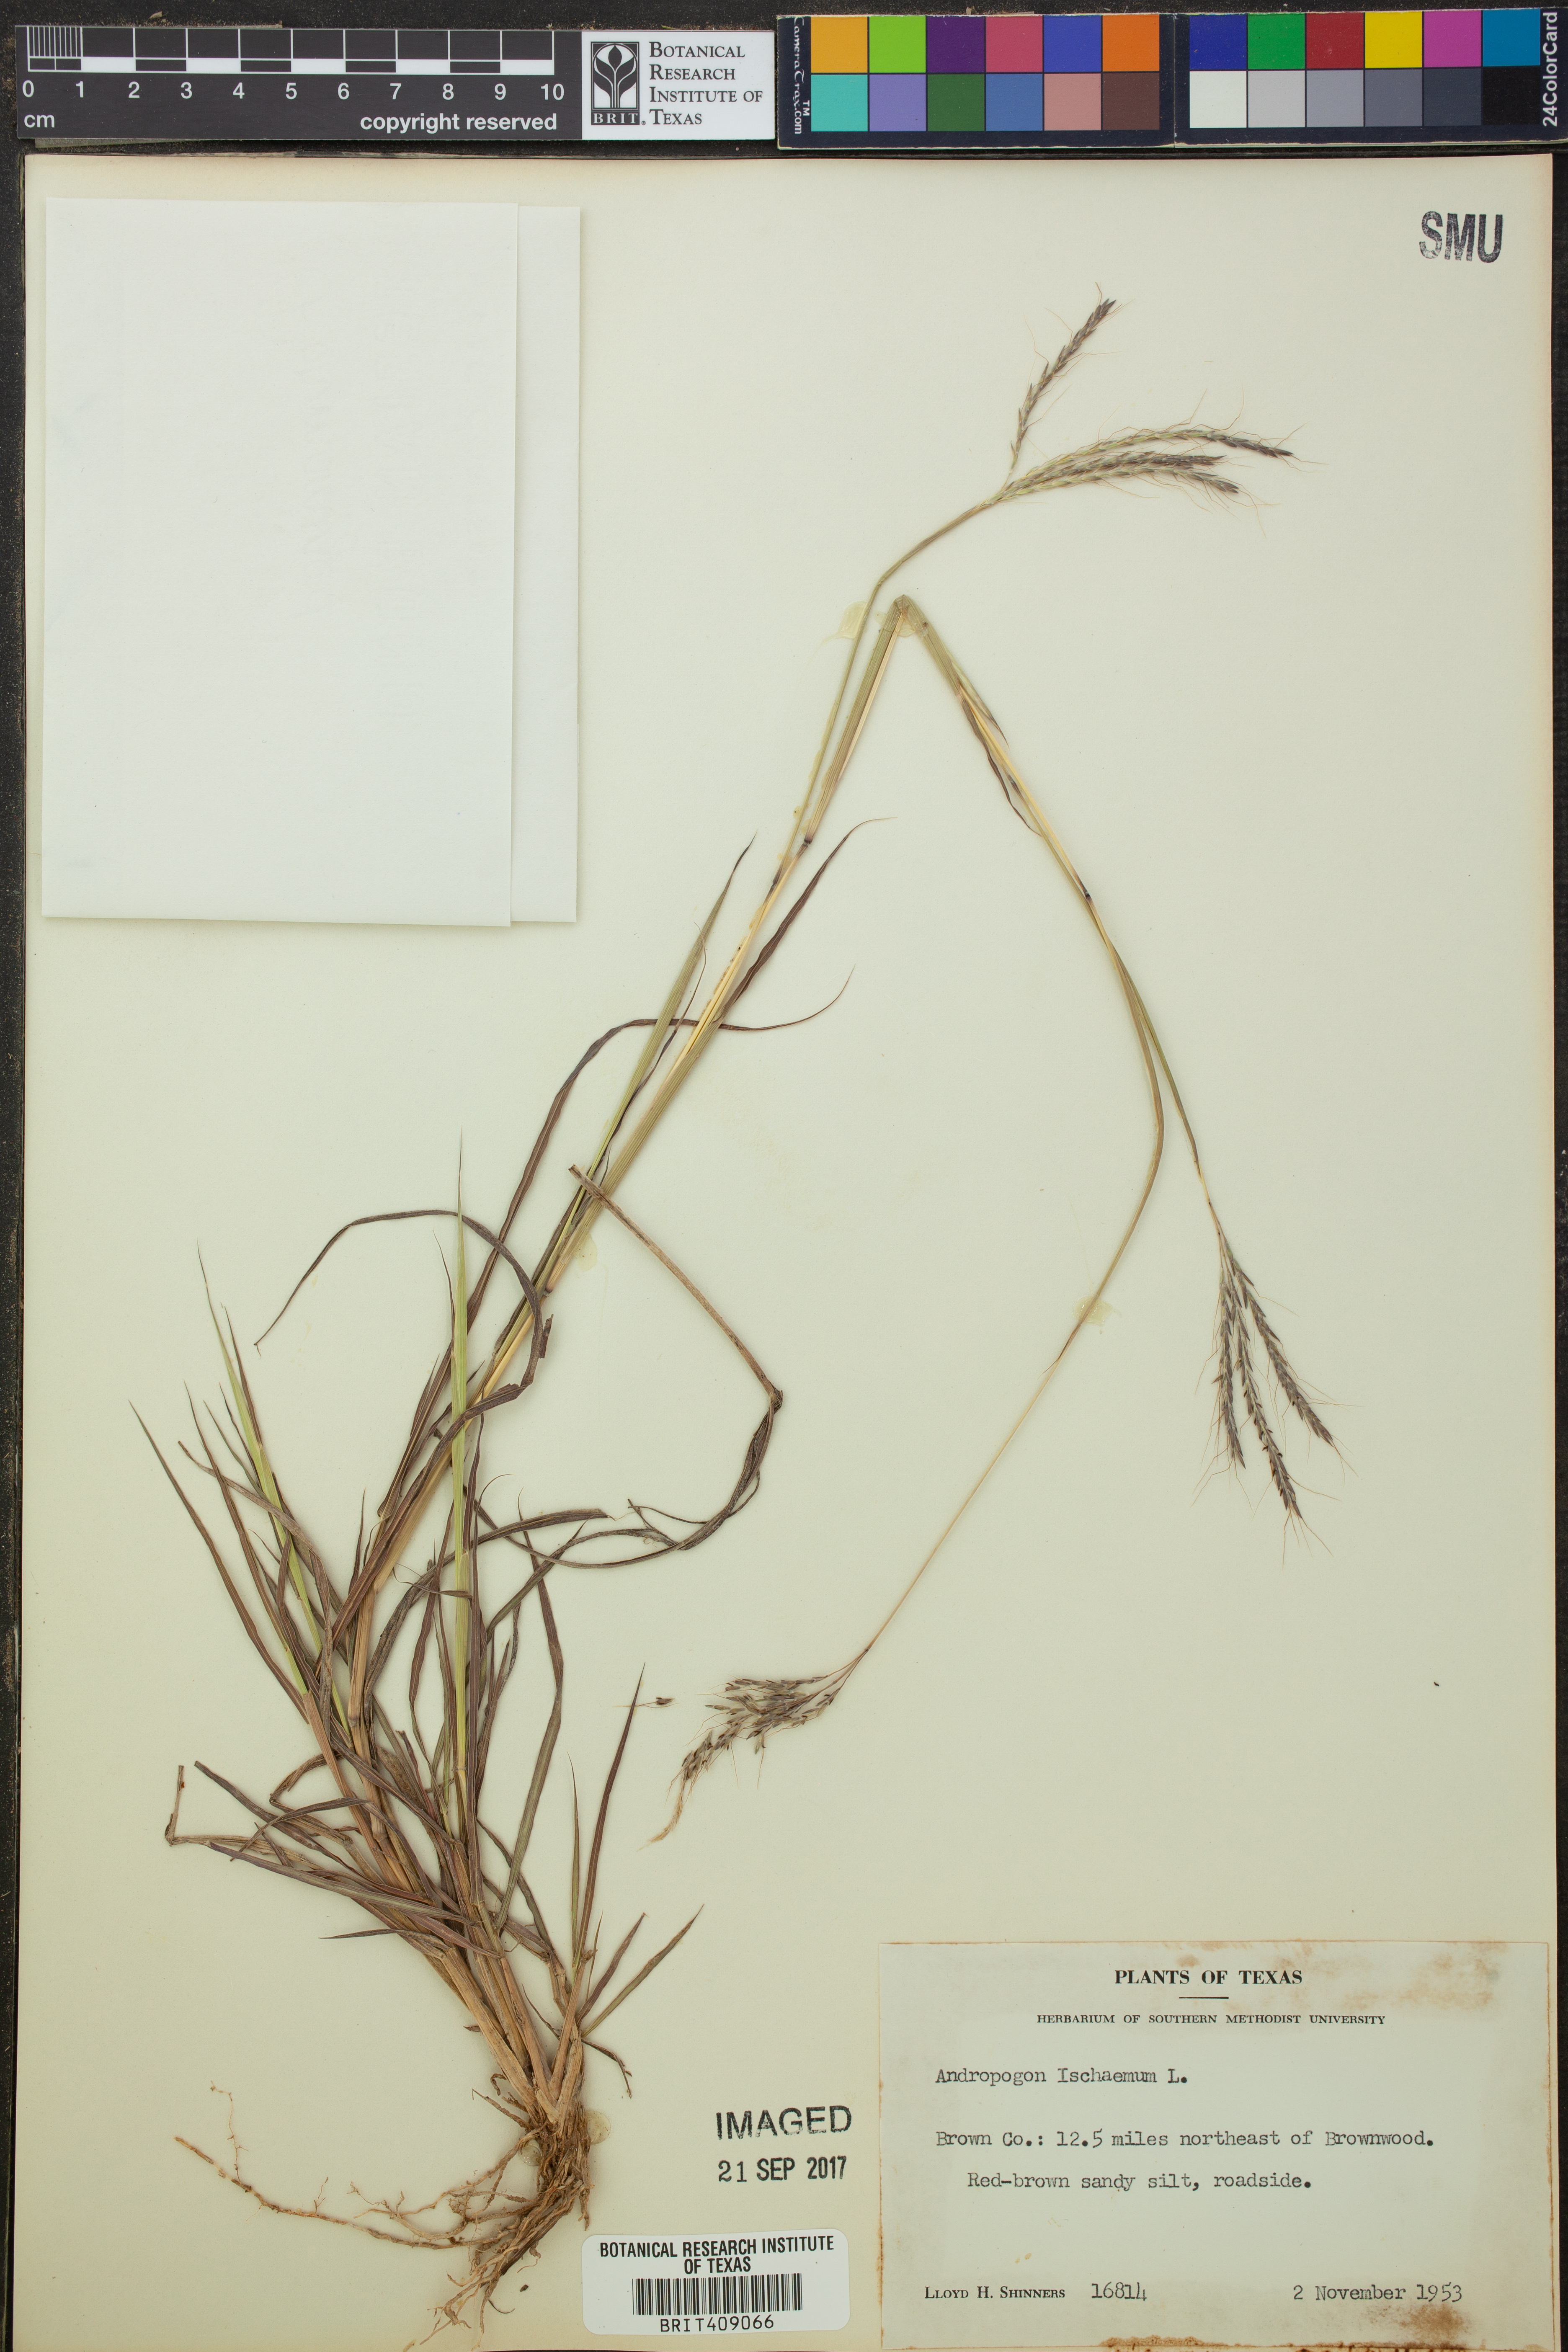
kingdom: Plantae
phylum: Tracheophyta
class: Liliopsida
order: Poales
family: Poaceae
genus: Andropogon
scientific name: Andropogon ischaemum
